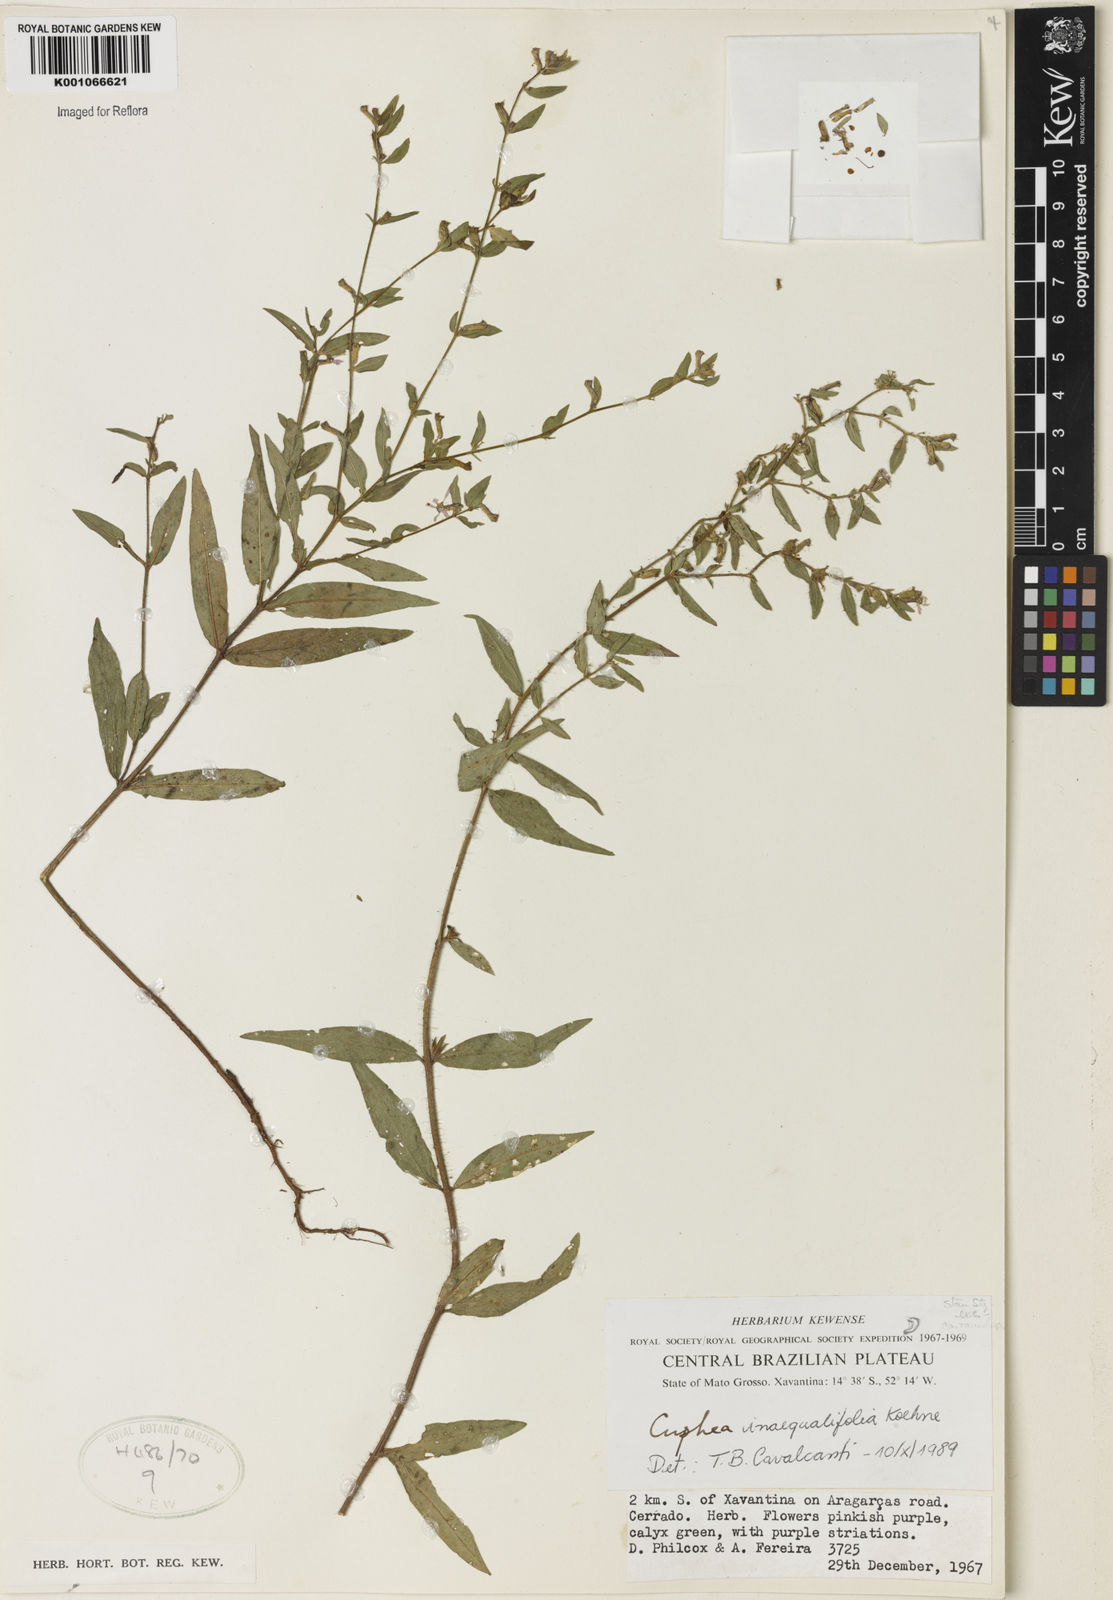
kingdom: Plantae
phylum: Tracheophyta
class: Magnoliopsida
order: Myrtales
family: Lythraceae
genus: Cuphea
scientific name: Cuphea inaequalifolia
